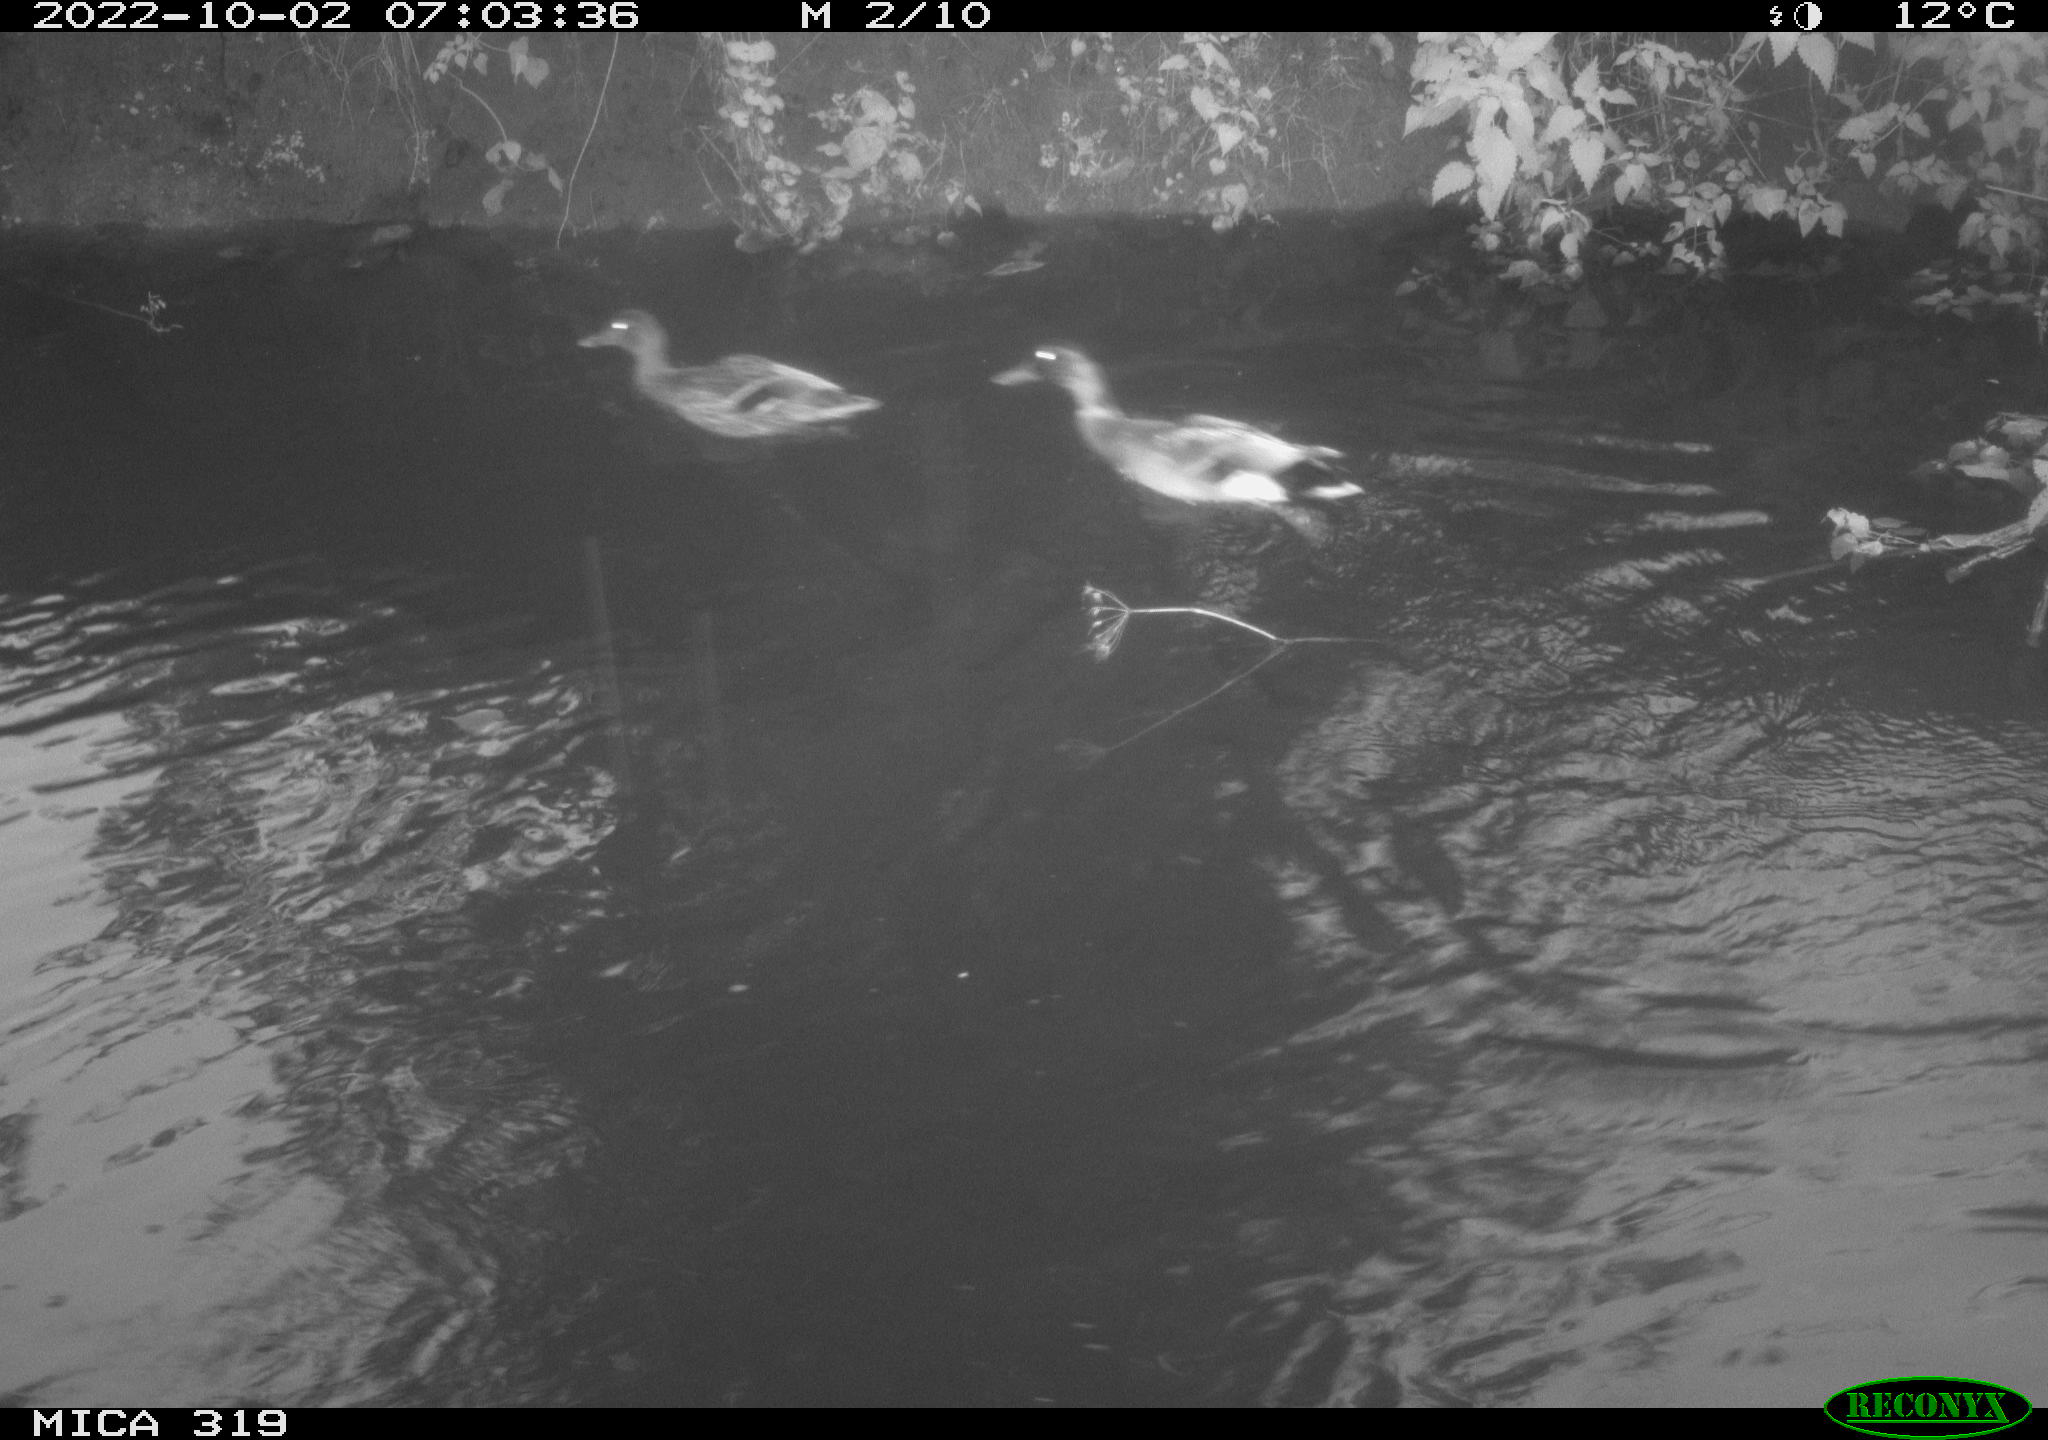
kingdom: Animalia
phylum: Chordata
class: Aves
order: Anseriformes
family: Anatidae
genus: Anas
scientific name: Anas
